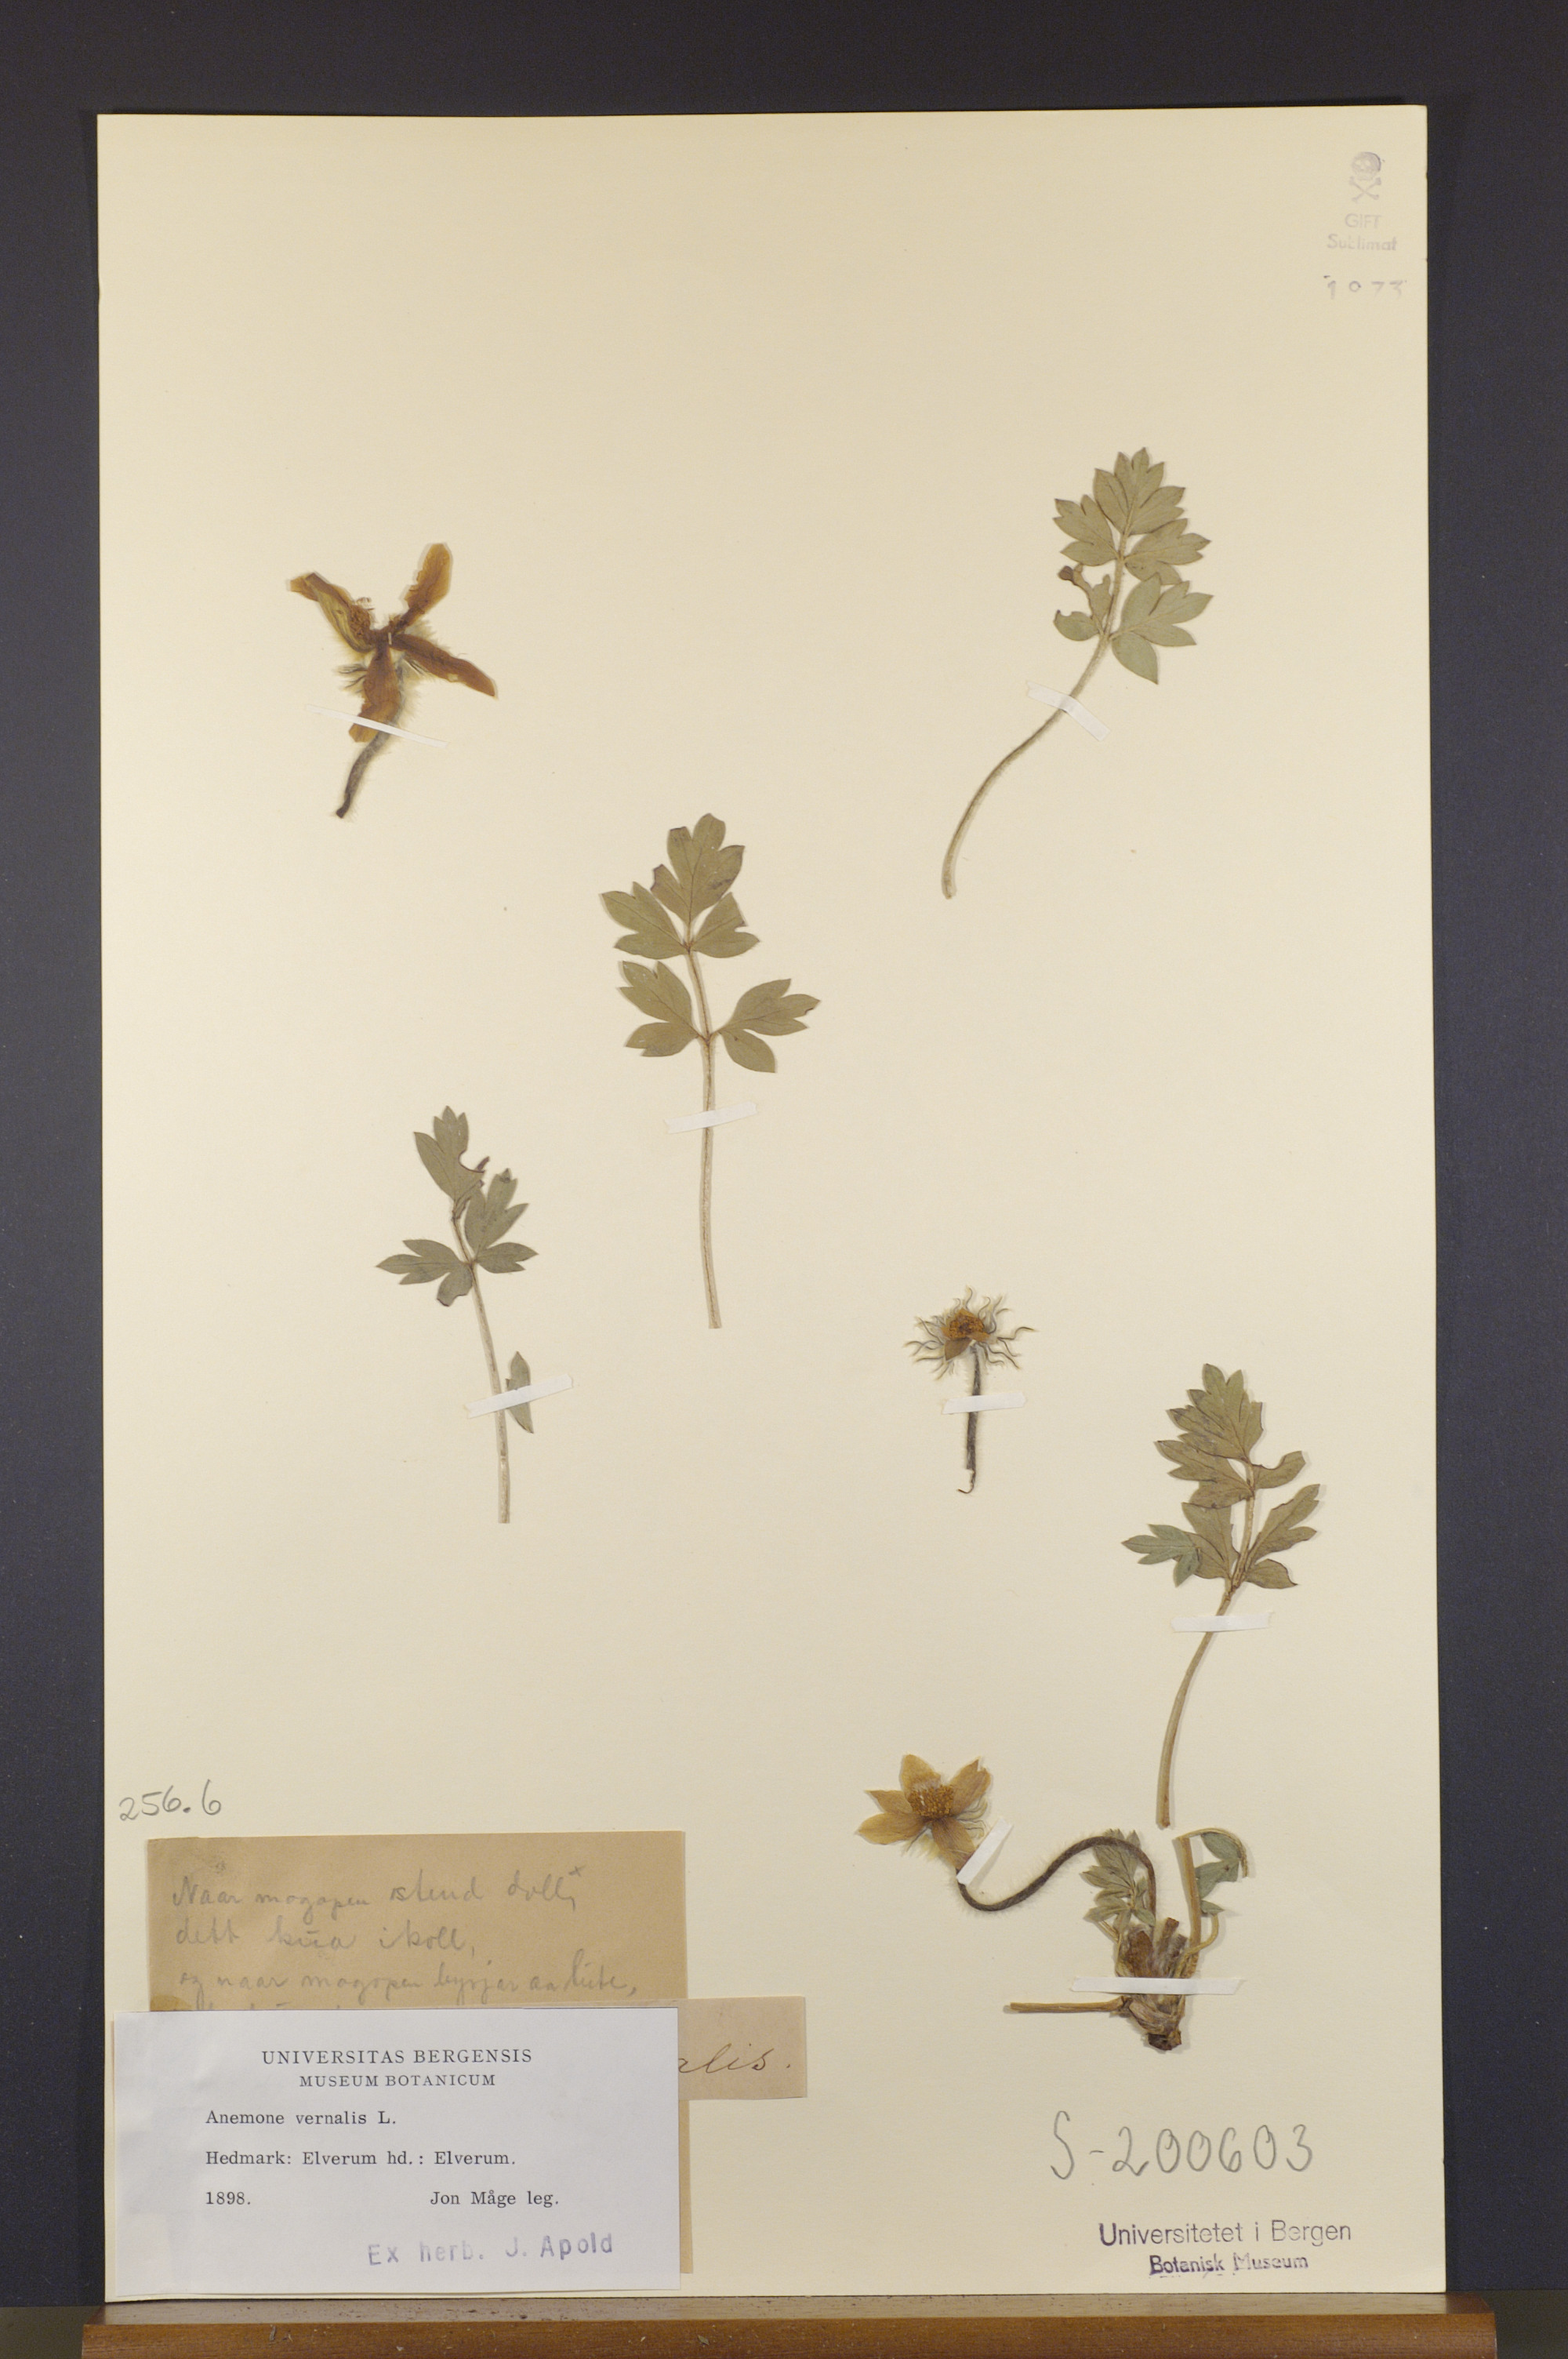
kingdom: Plantae
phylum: Tracheophyta
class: Magnoliopsida
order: Ranunculales
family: Ranunculaceae
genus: Pulsatilla
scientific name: Pulsatilla vernalis
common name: Spring pasque flower
